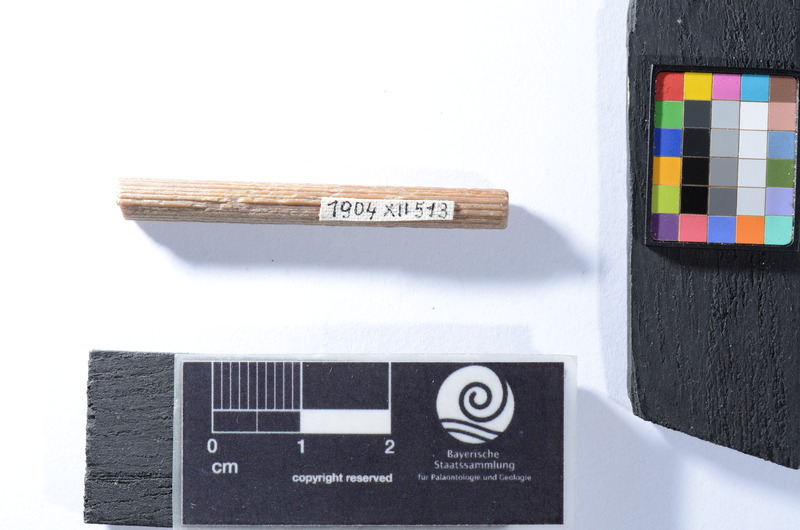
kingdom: Animalia
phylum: Chordata
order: Perciformes
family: Scombridae
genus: Cylindracanthus
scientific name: Cylindracanthus Coelorhynchus rectus
